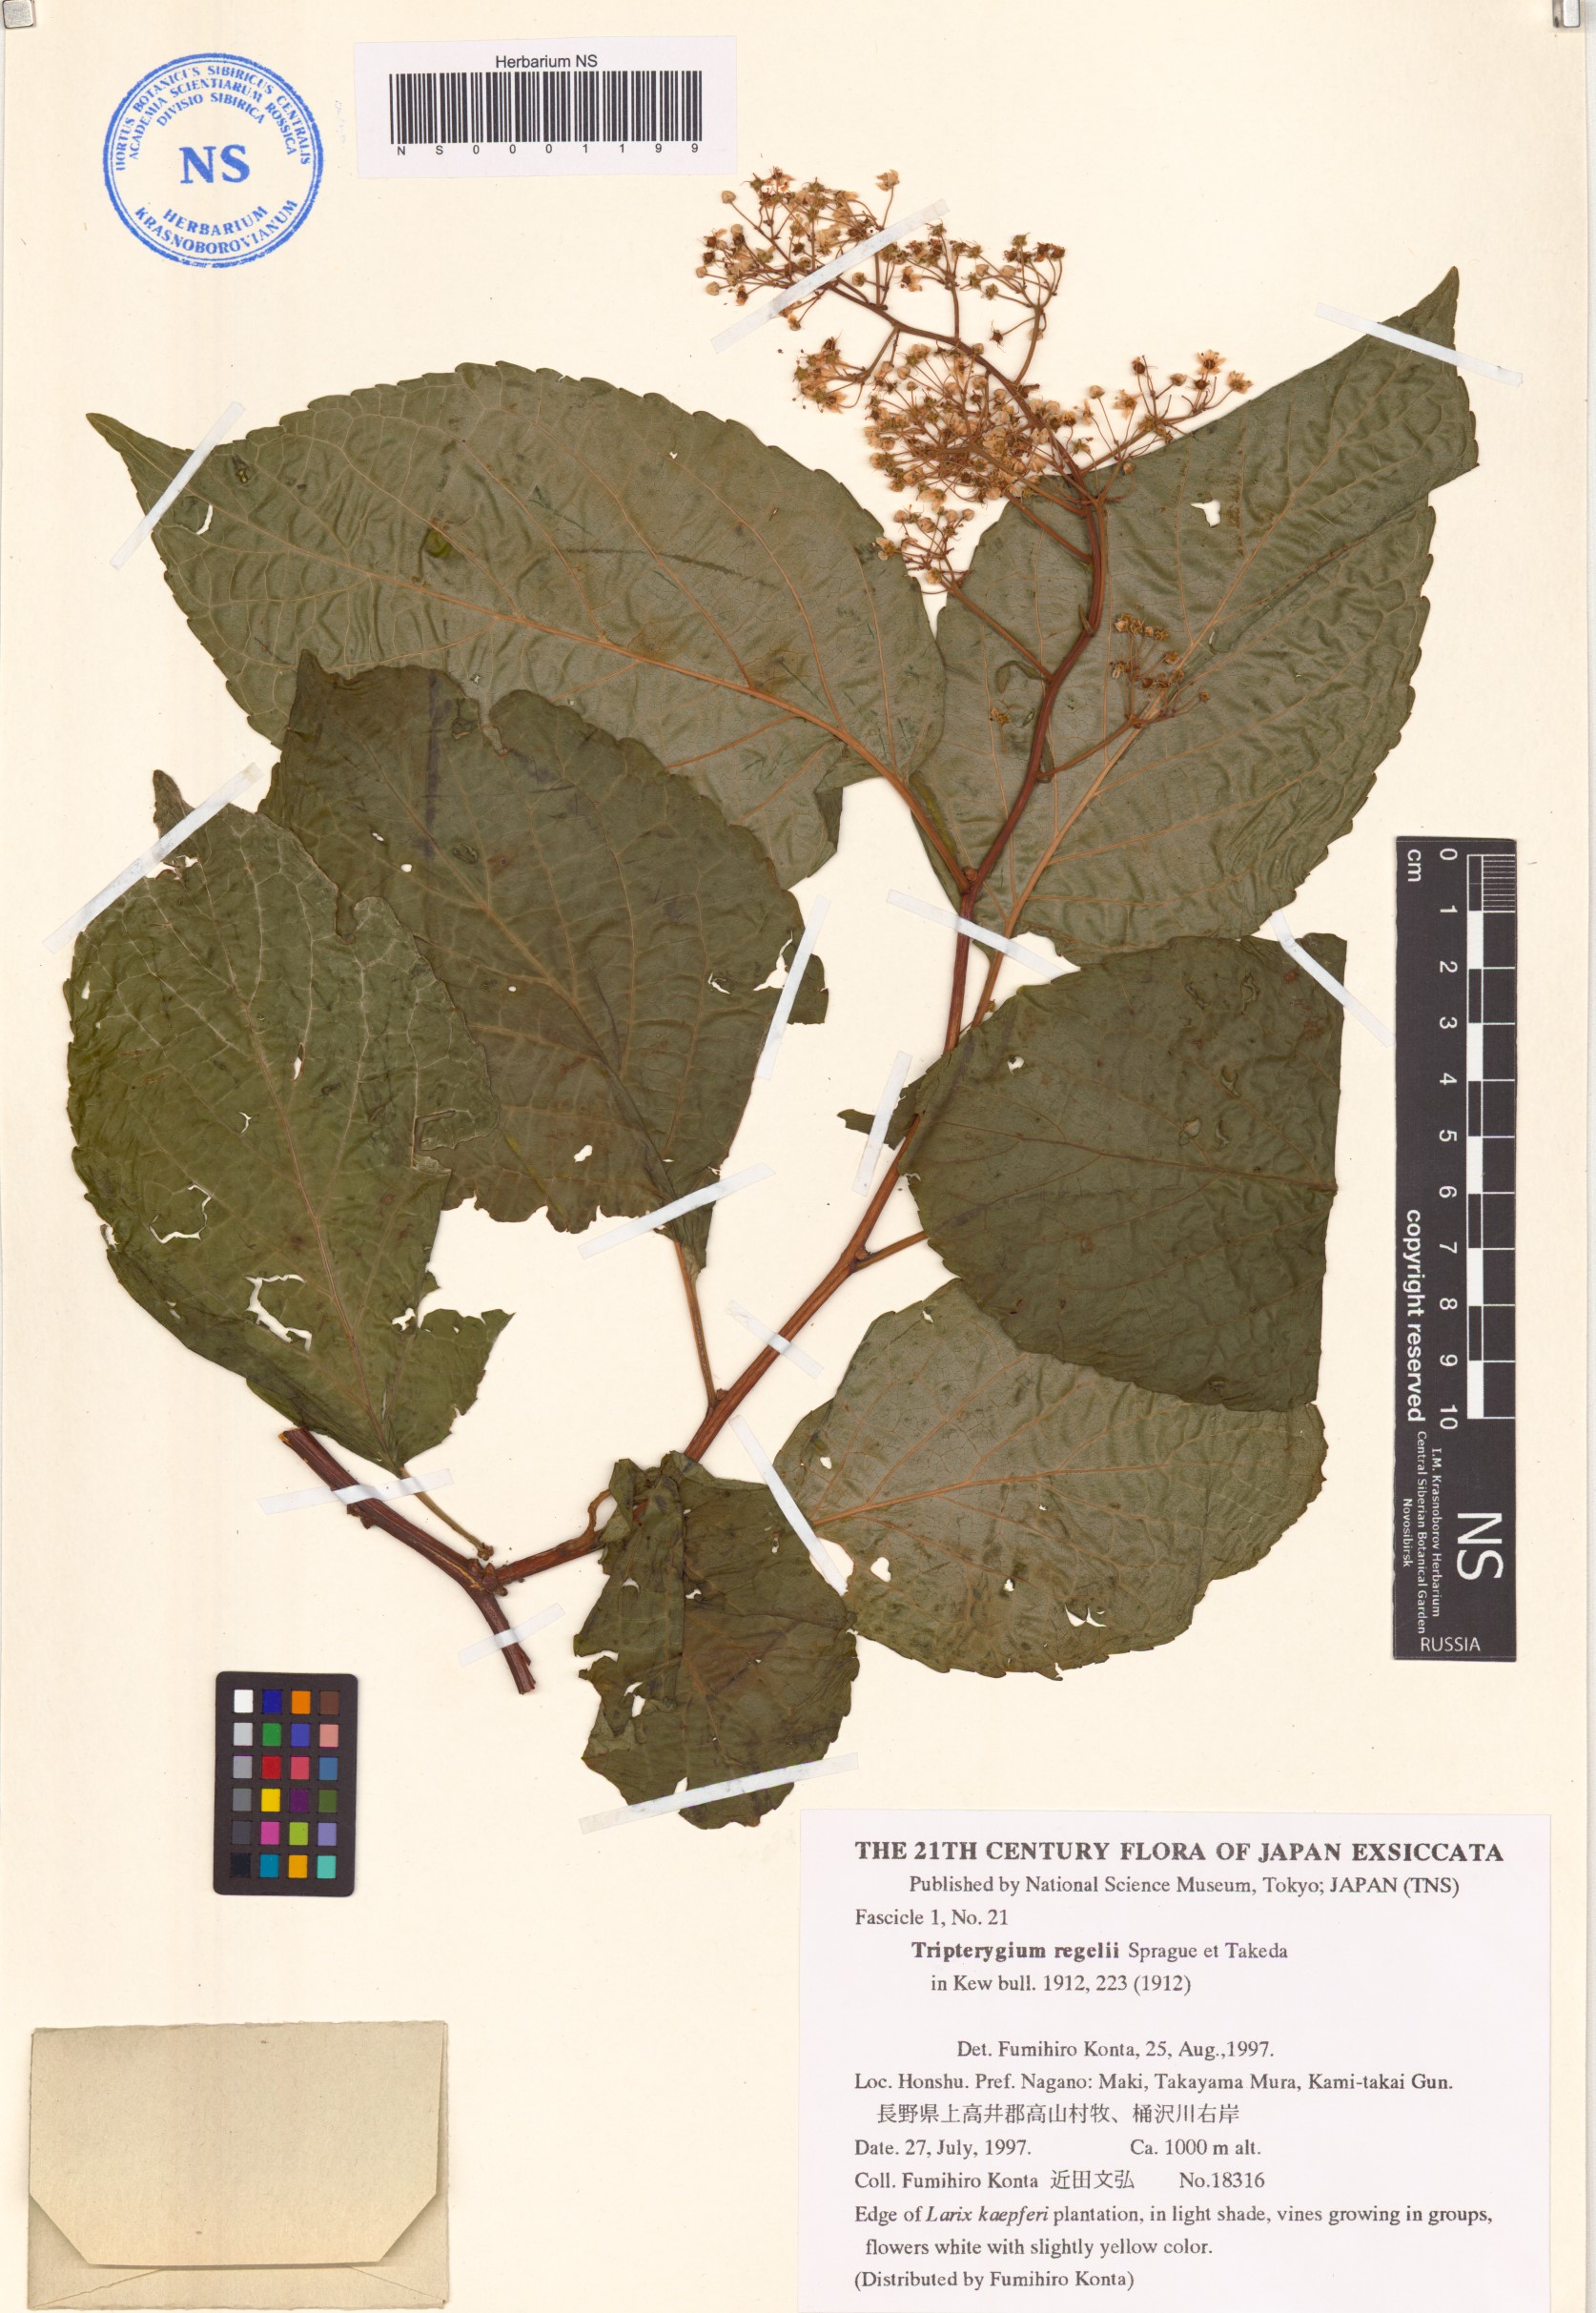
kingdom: Plantae
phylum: Tracheophyta
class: Magnoliopsida
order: Celastrales
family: Celastraceae
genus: Tripterygium
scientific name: Tripterygium wilfordii
